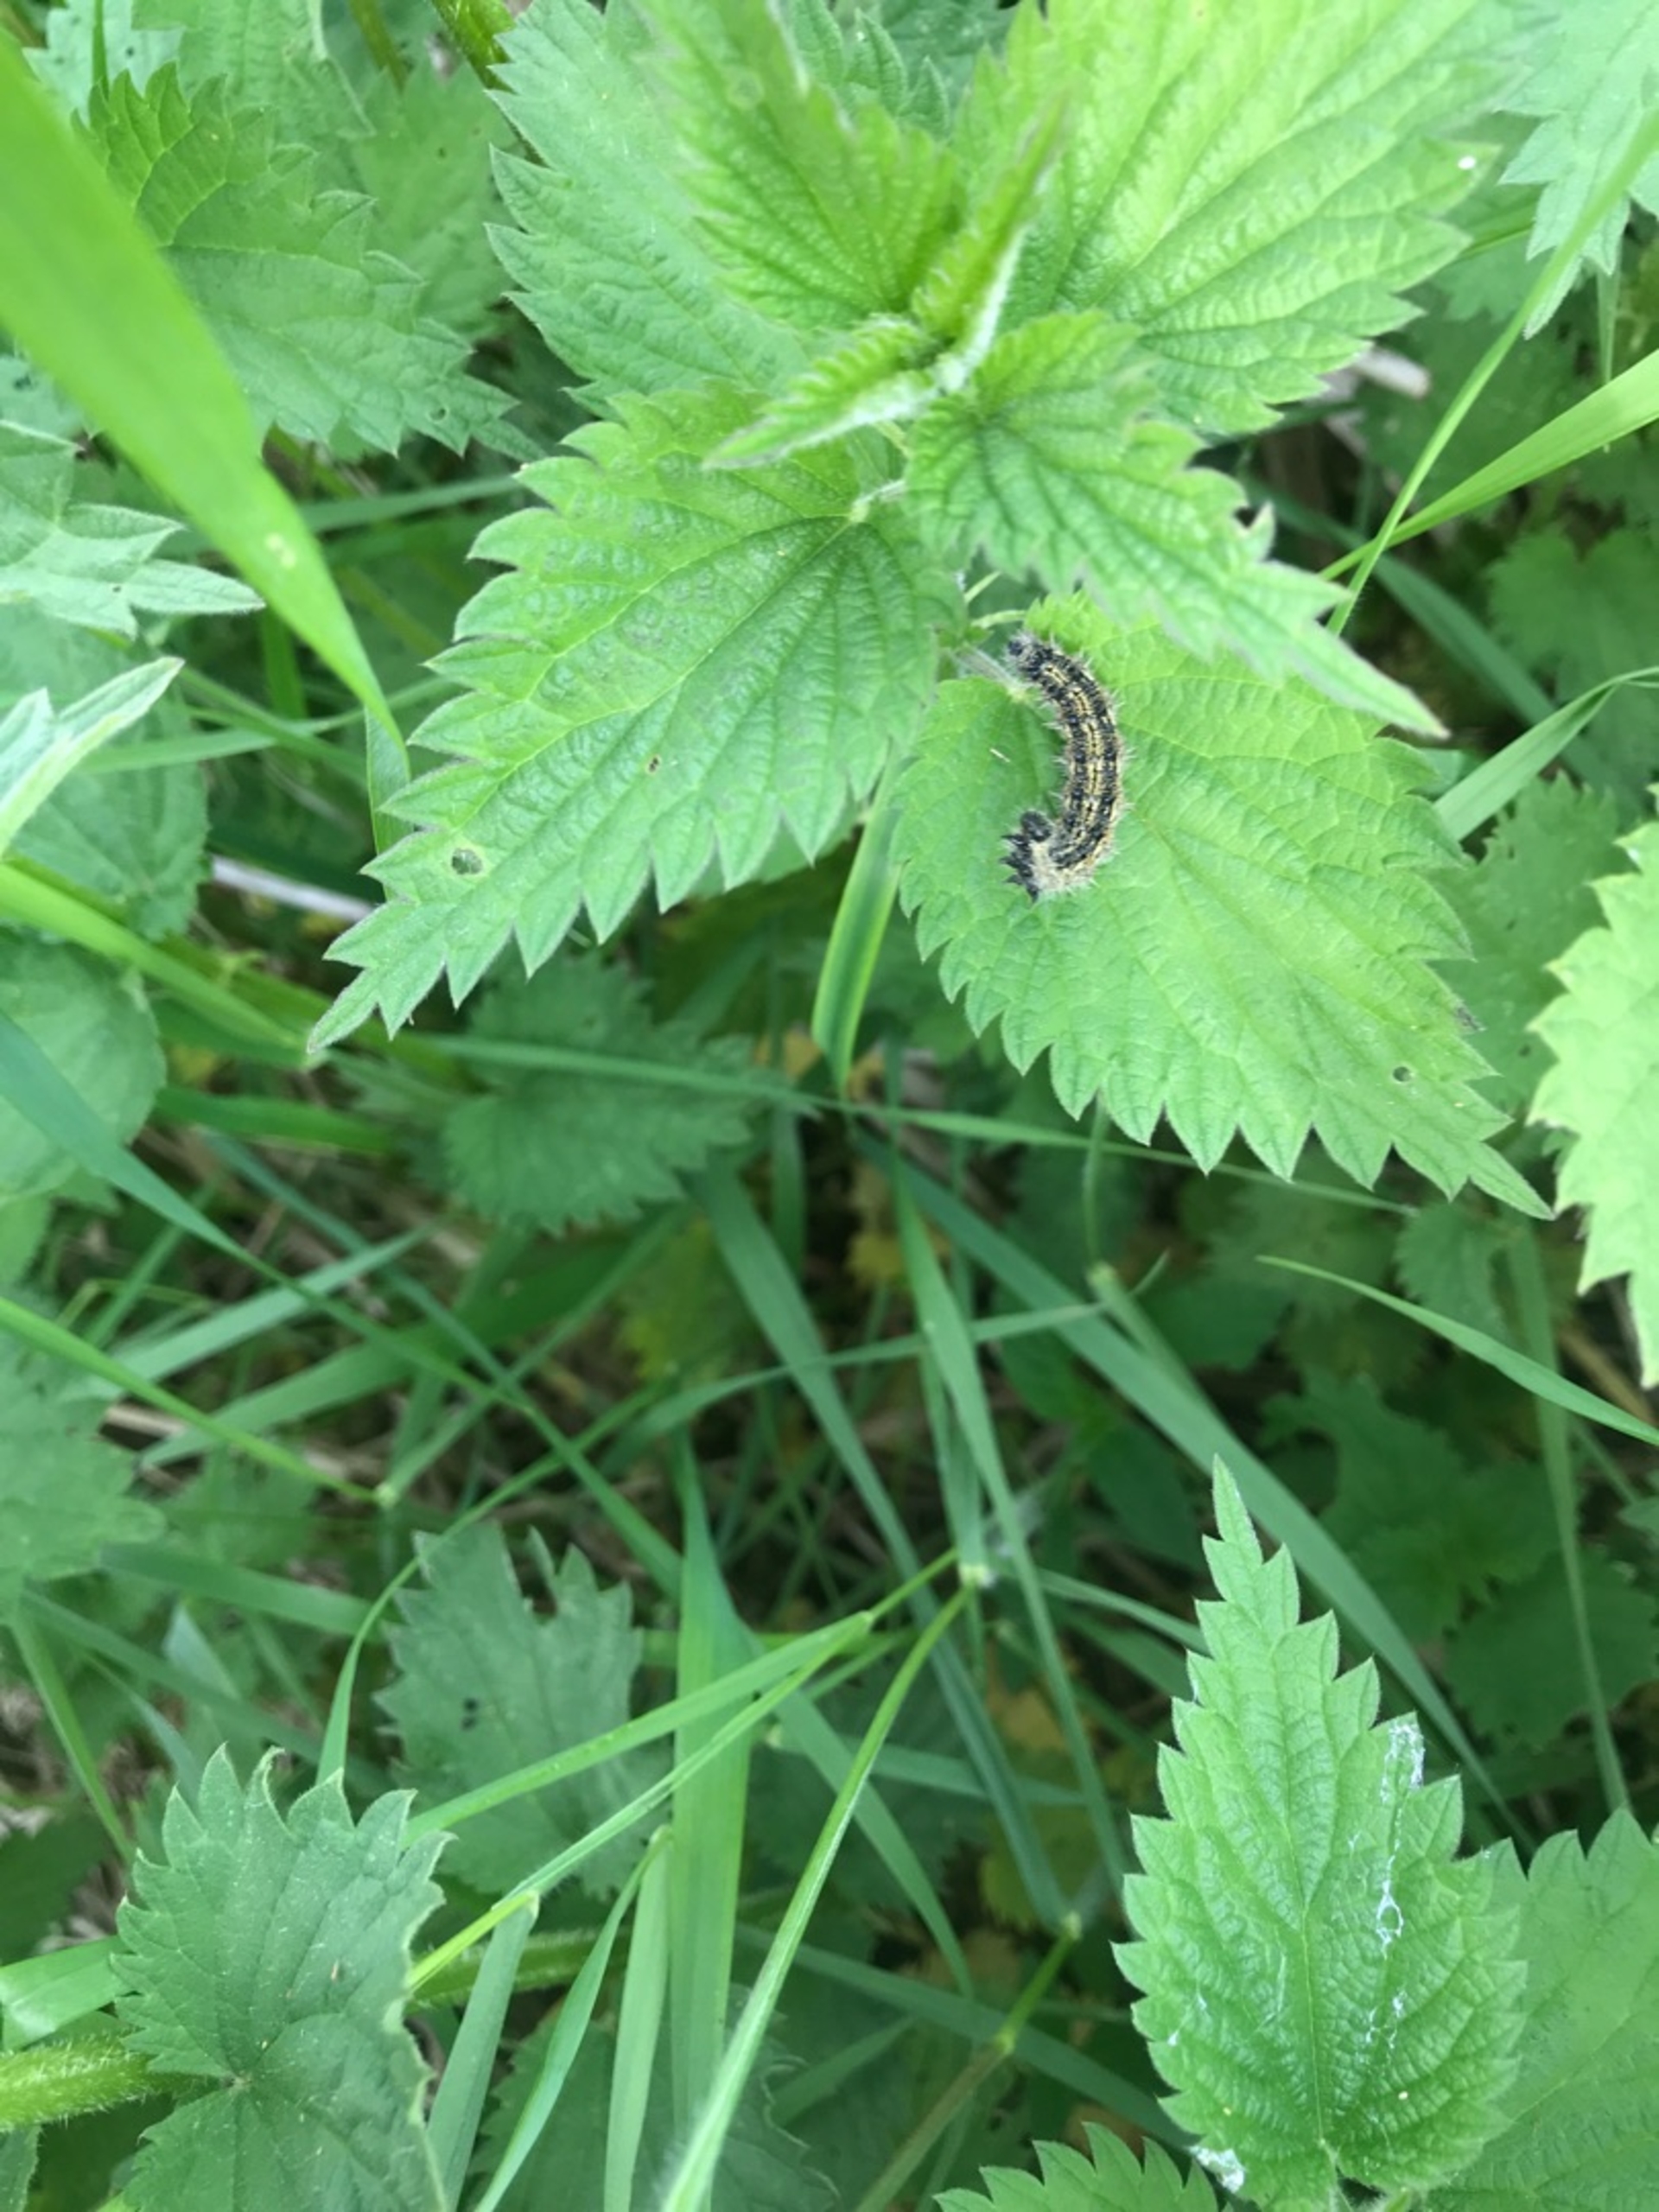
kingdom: Animalia
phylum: Arthropoda
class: Insecta
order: Lepidoptera
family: Nymphalidae
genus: Aglais
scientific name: Aglais urticae
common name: Nældens takvinge
